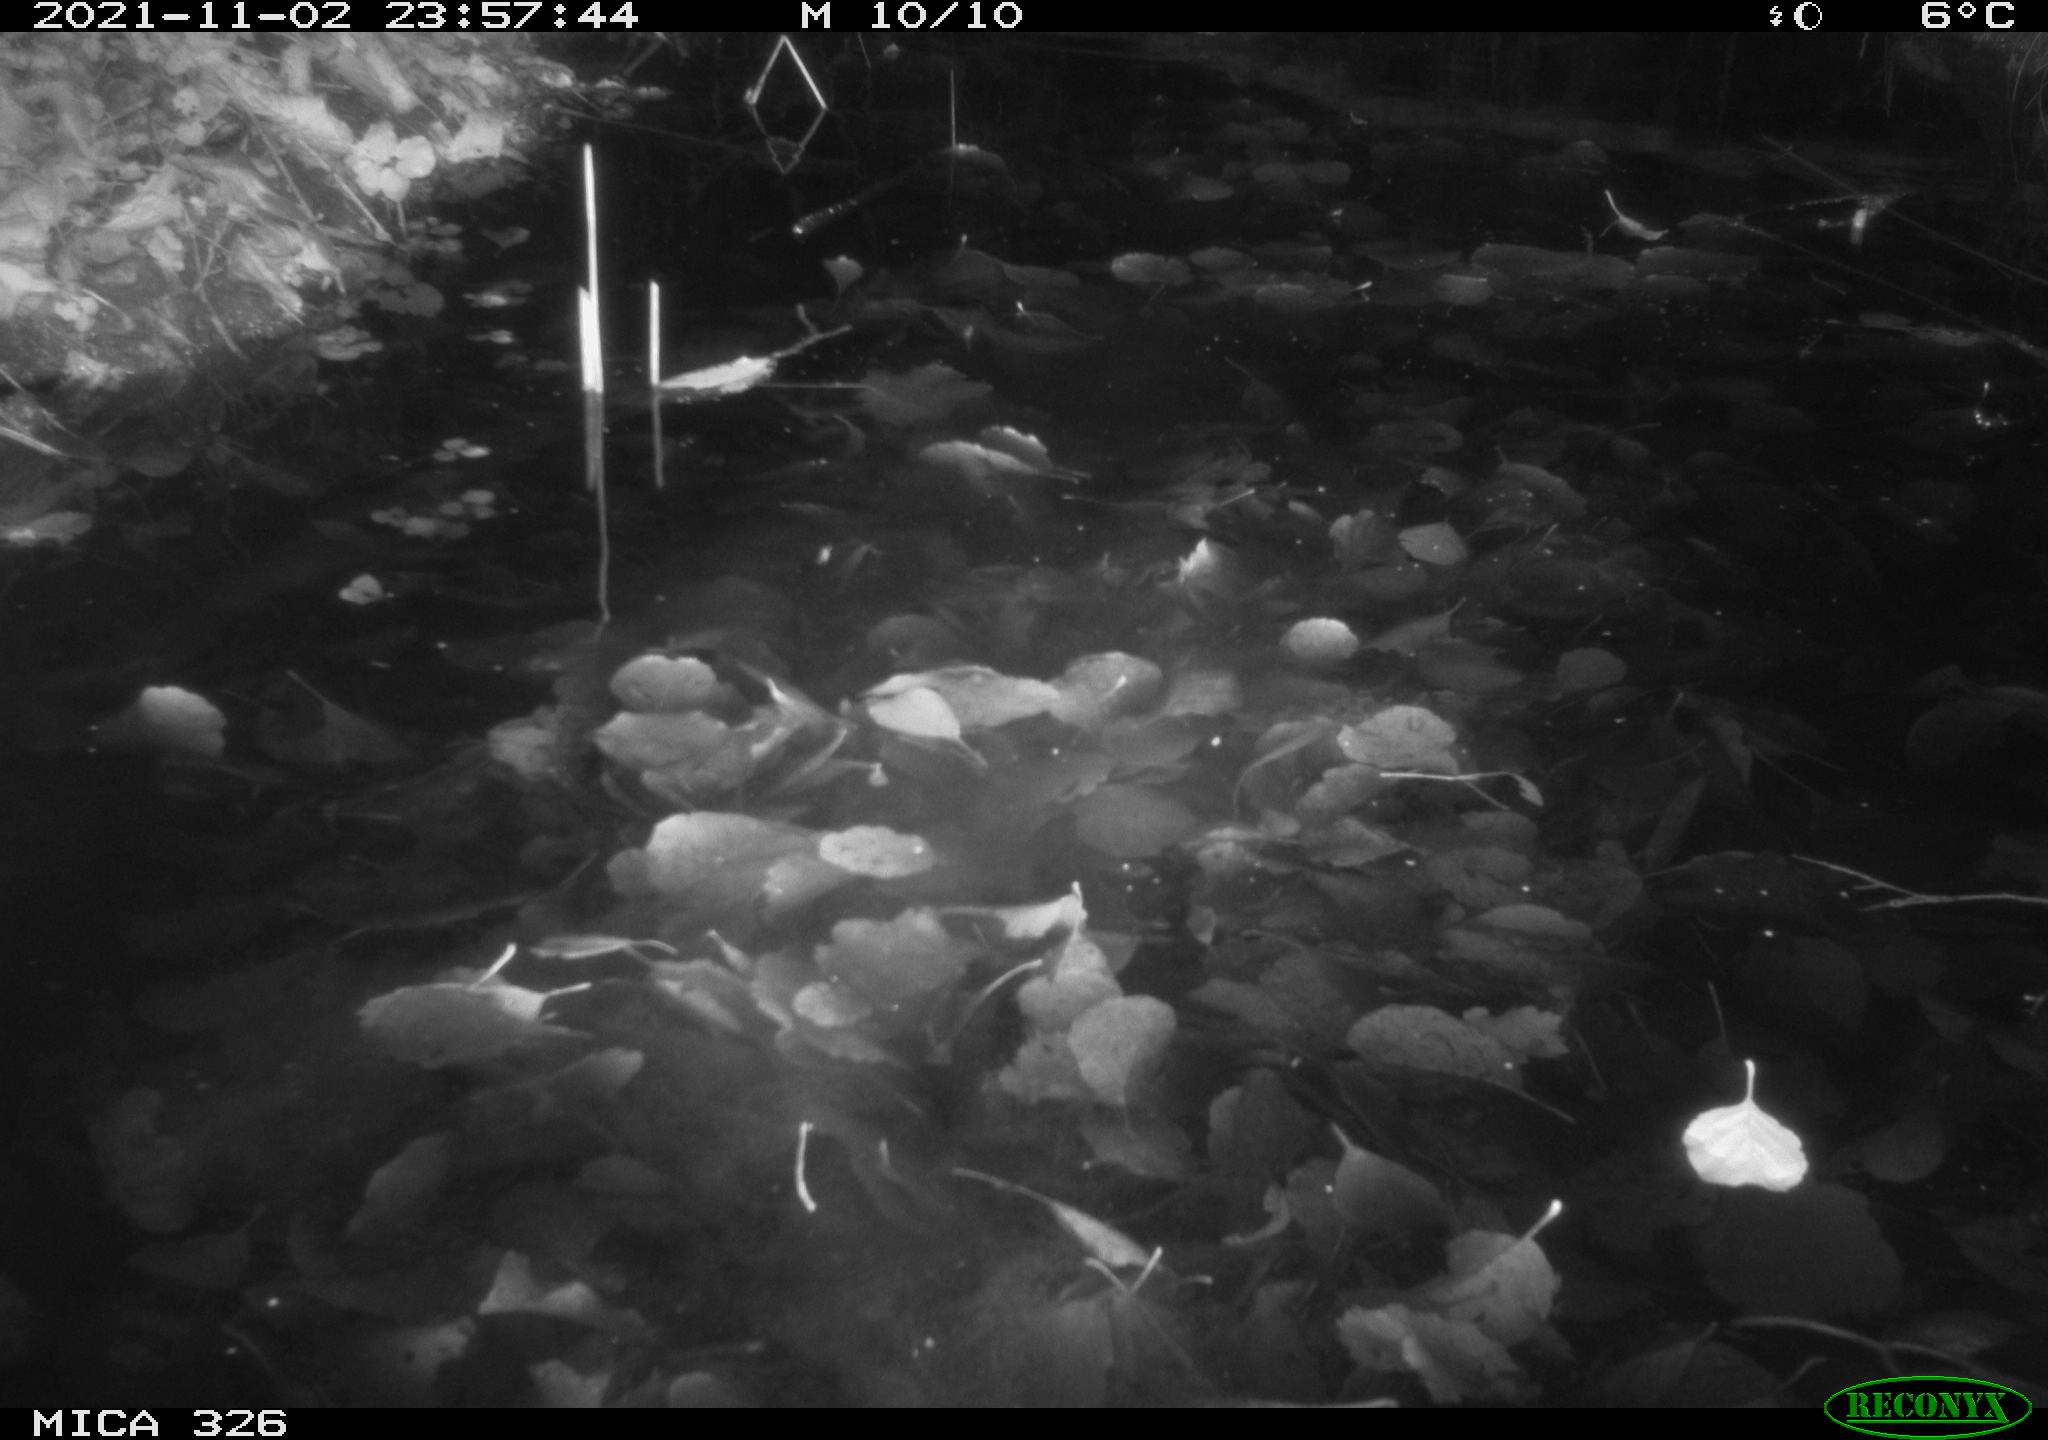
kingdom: Animalia
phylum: Chordata
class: Mammalia
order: Rodentia
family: Myocastoridae
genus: Myocastor
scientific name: Myocastor coypus
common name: Coypu
